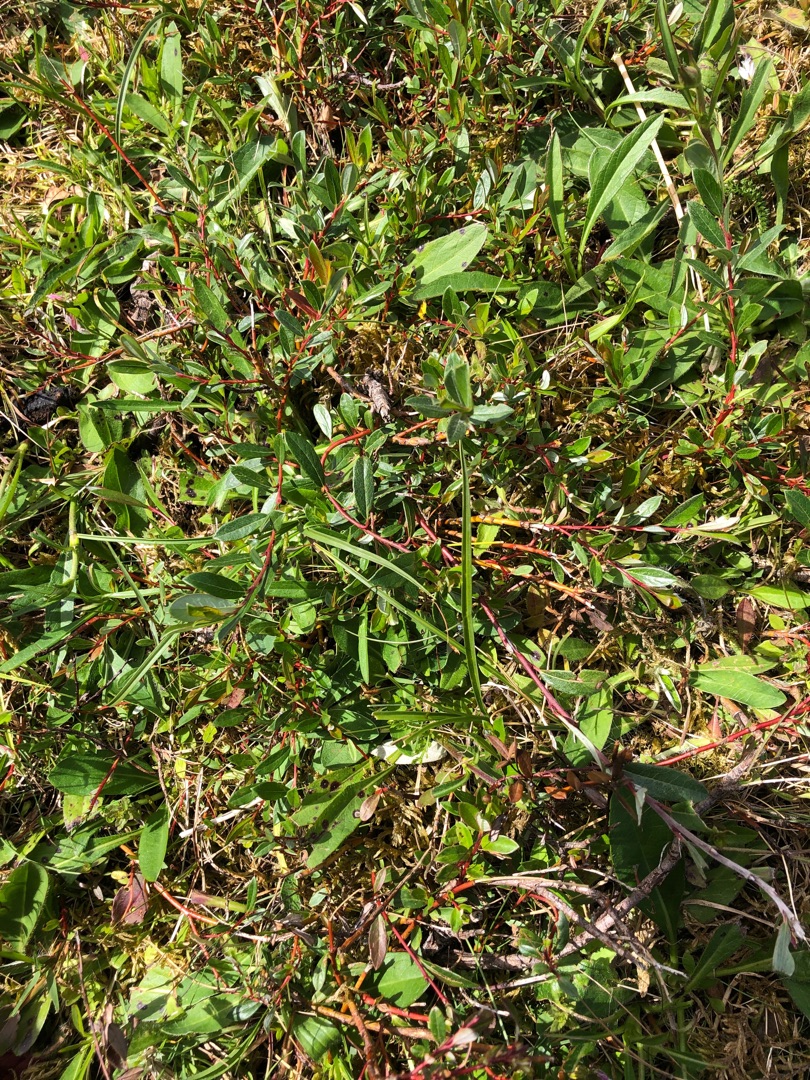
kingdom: Plantae
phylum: Tracheophyta
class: Magnoliopsida
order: Malpighiales
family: Salicaceae
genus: Salix
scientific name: Salix repens
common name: Krybende pil
